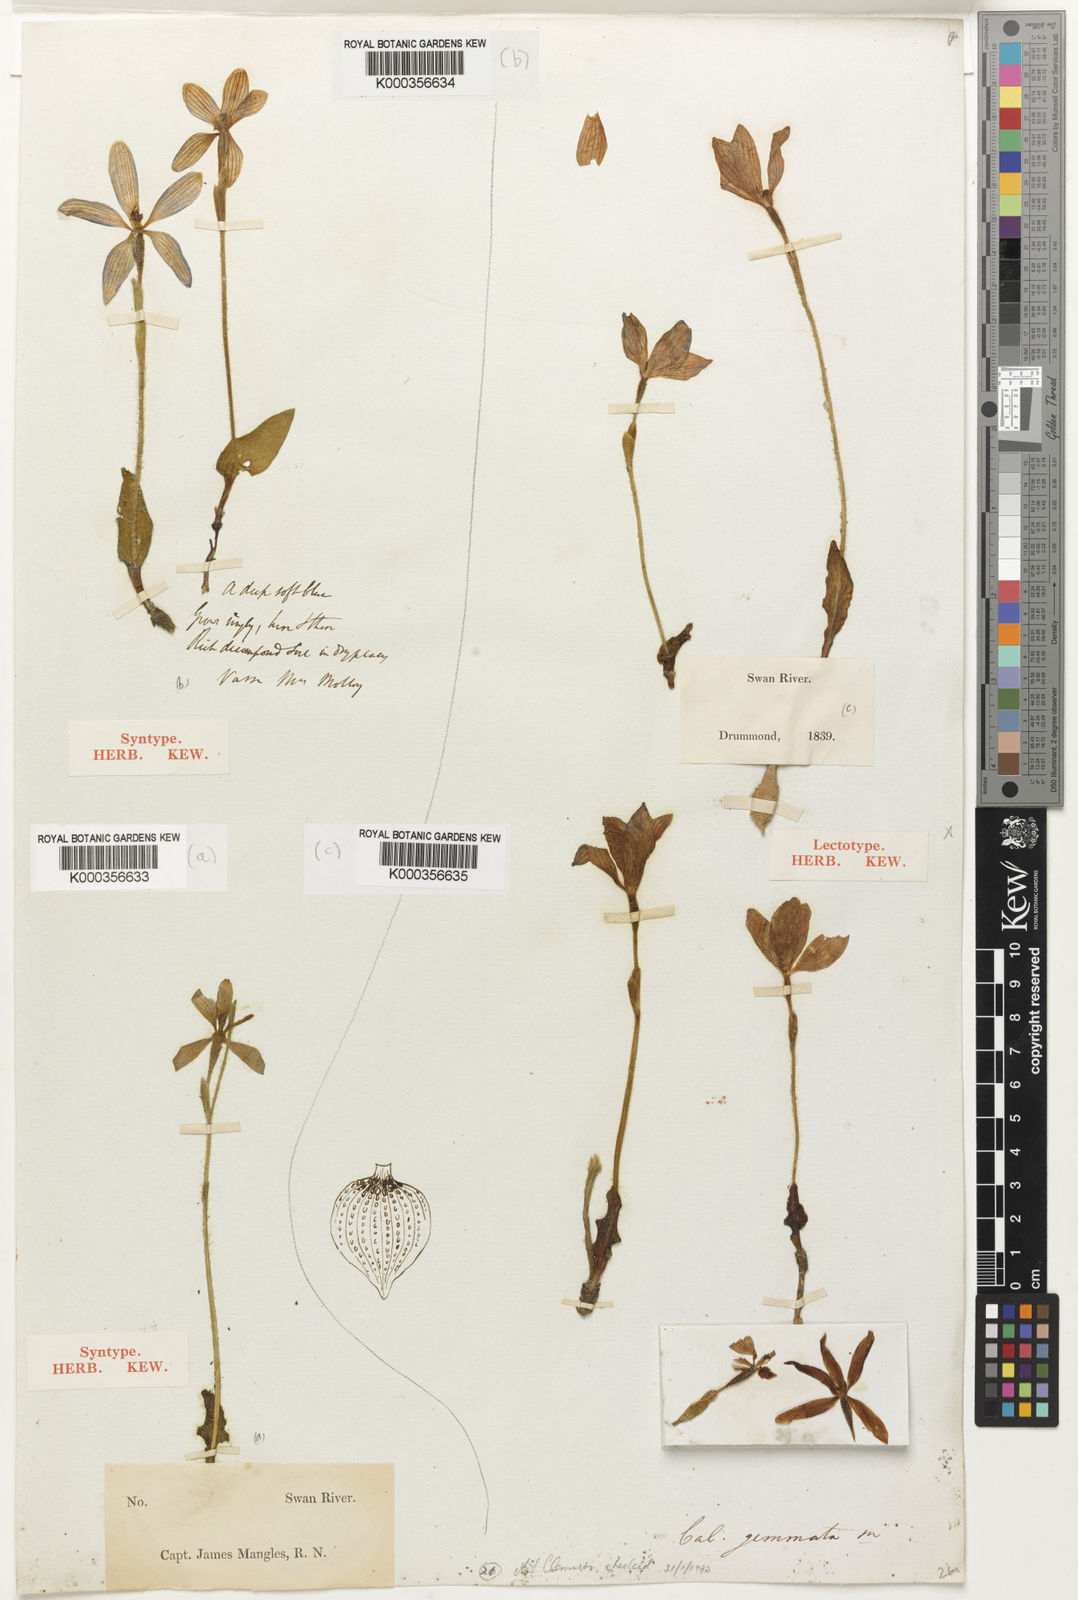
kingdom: Plantae
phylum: Tracheophyta
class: Liliopsida
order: Asparagales
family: Orchidaceae
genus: Caladenia
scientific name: Caladenia gemmata
